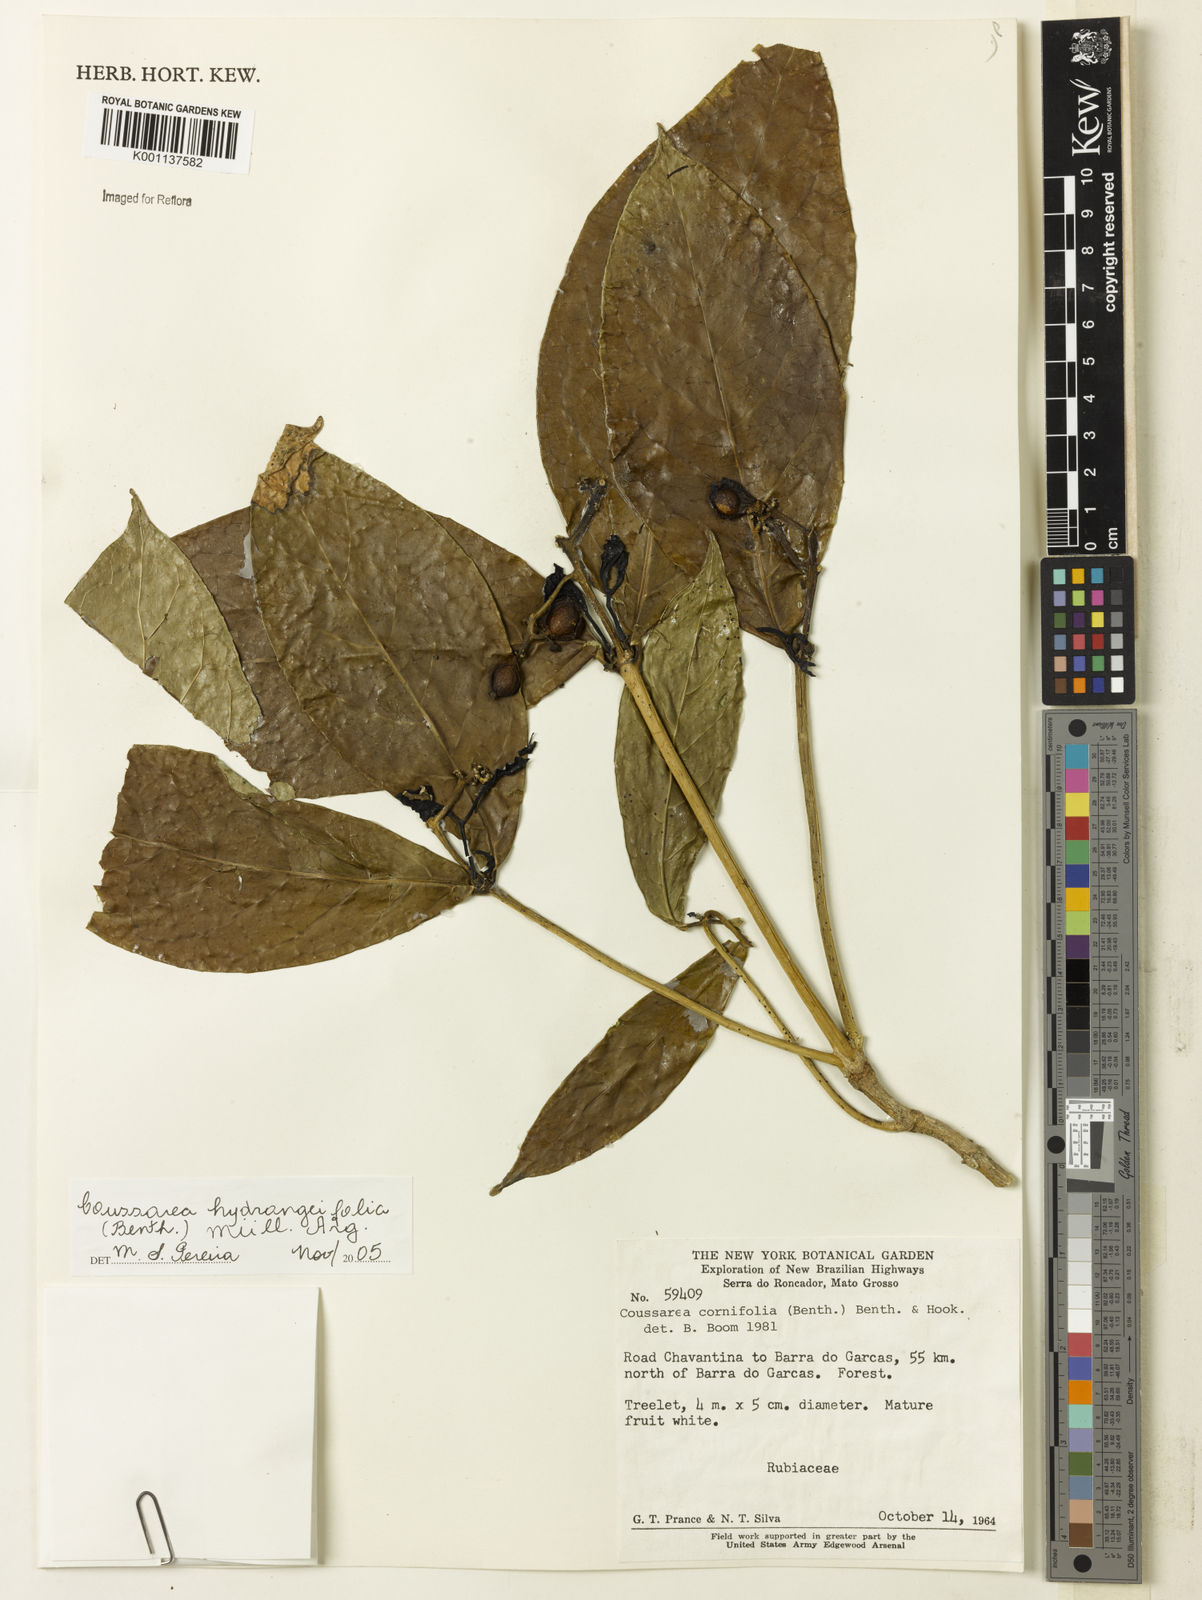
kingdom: Plantae
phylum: Tracheophyta
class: Magnoliopsida
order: Gentianales
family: Rubiaceae
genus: Coussarea
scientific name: Coussarea
